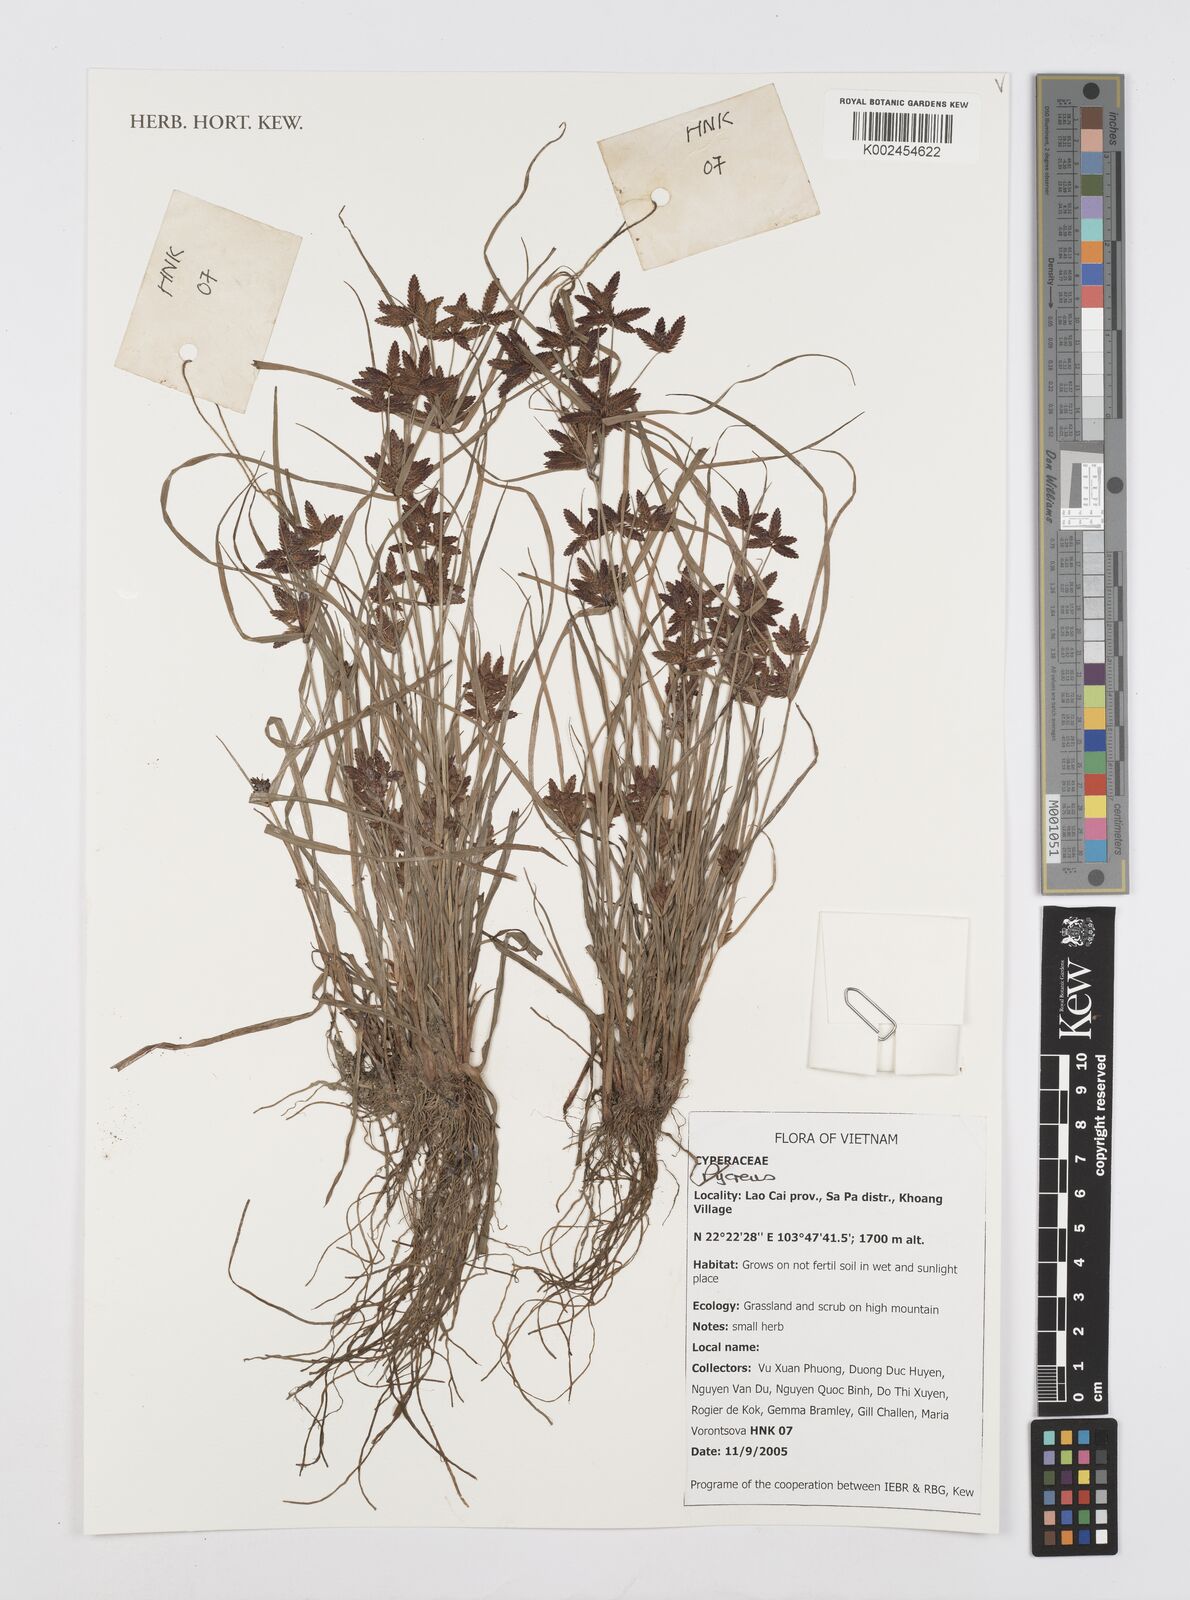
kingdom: Plantae
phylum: Tracheophyta
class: Liliopsida
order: Poales
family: Cyperaceae
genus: Cyperus
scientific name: Cyperus
